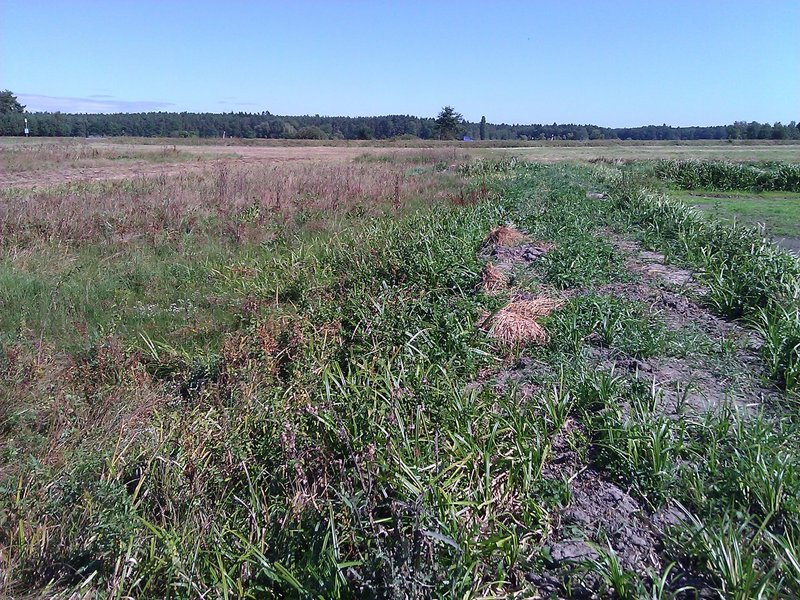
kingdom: Animalia
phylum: Arthropoda
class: Insecta
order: Orthoptera
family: Tettigoniidae
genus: Conocephalus
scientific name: Conocephalus fuscus
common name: Long-winged conehead
